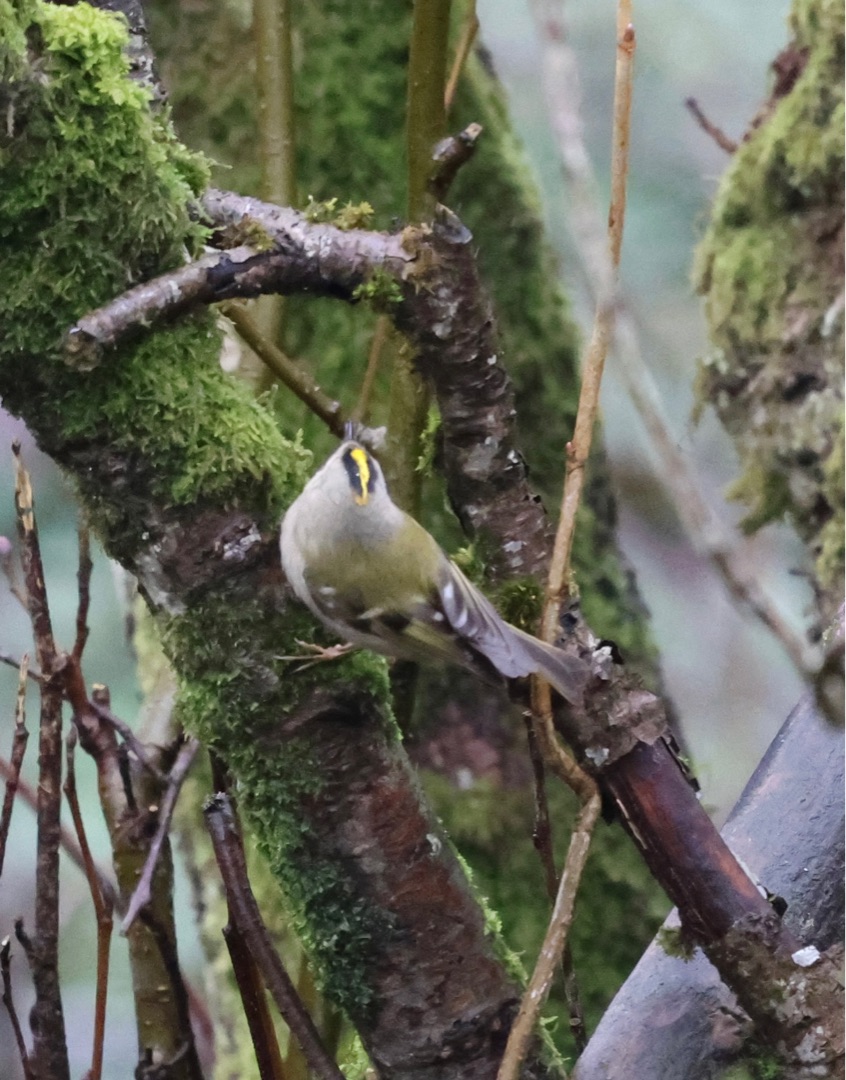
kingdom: Animalia
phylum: Chordata
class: Aves
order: Passeriformes
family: Regulidae
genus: Regulus
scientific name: Regulus regulus
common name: Fuglekonge
